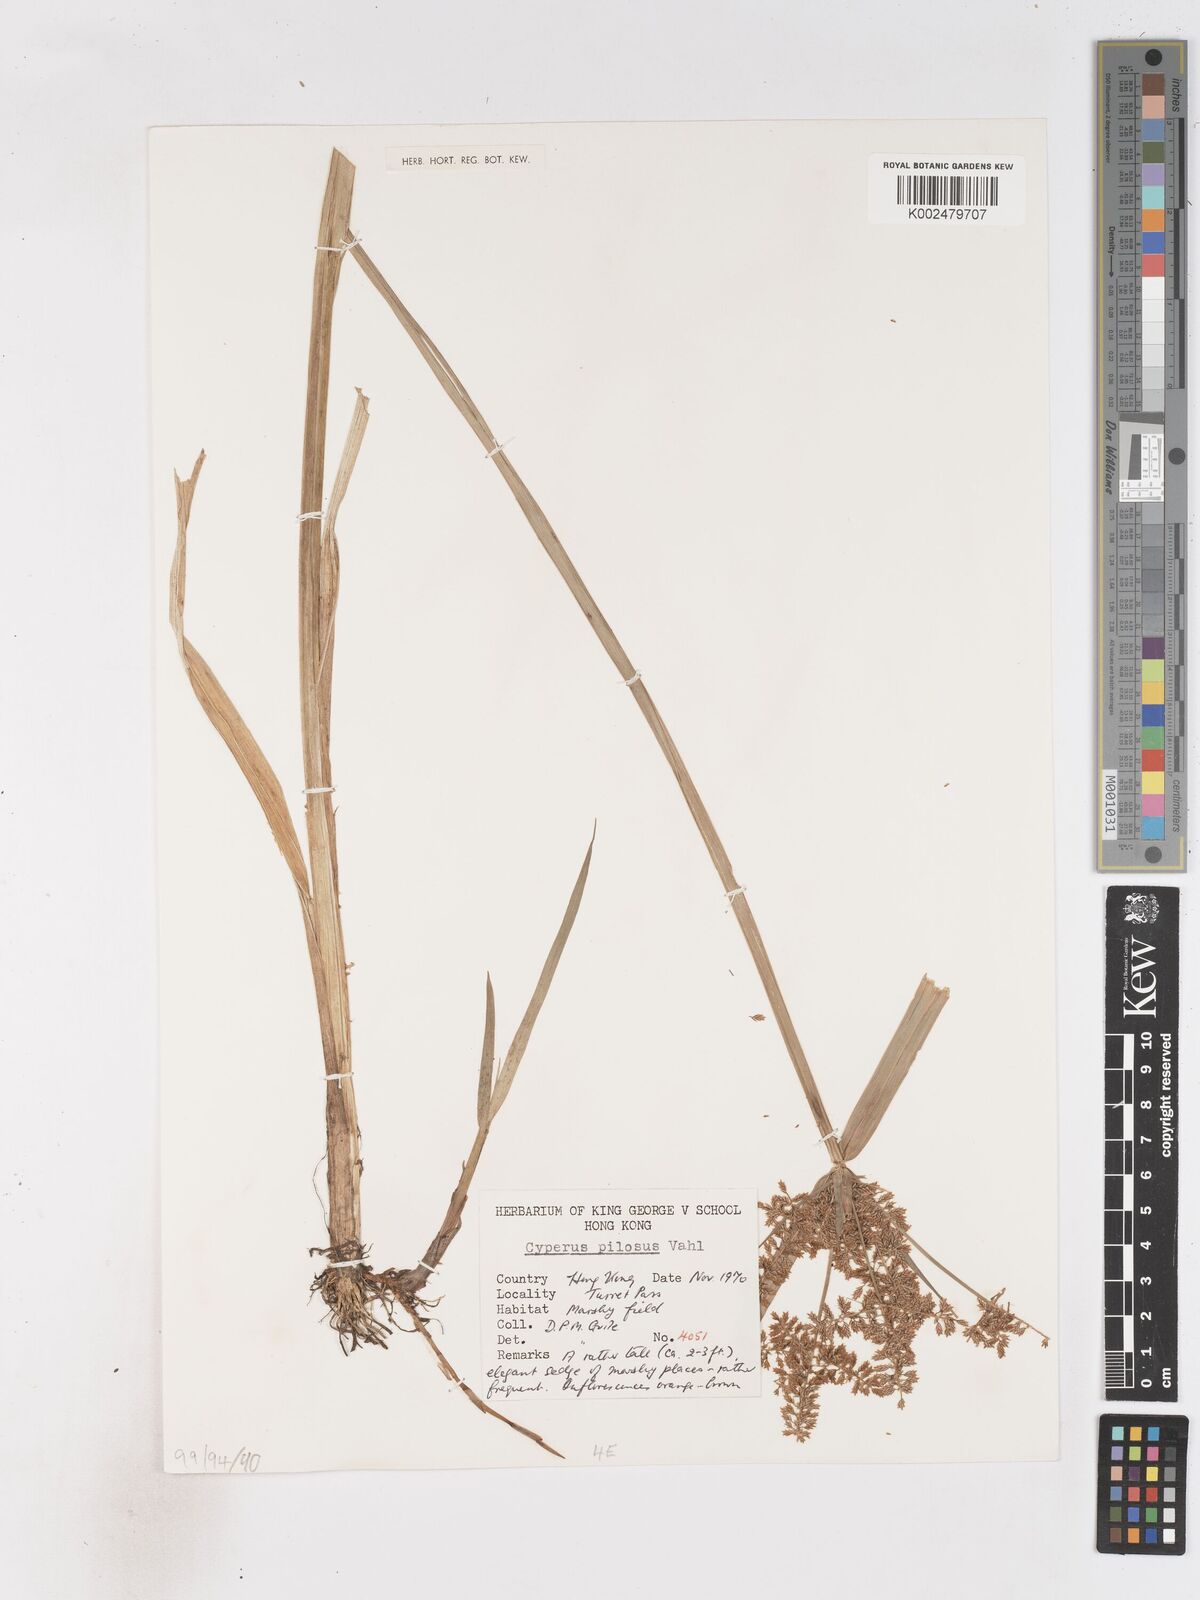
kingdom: Plantae
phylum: Tracheophyta
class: Liliopsida
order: Poales
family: Cyperaceae
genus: Cyperus
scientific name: Cyperus pilosus
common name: Fuzzy flatsedge
